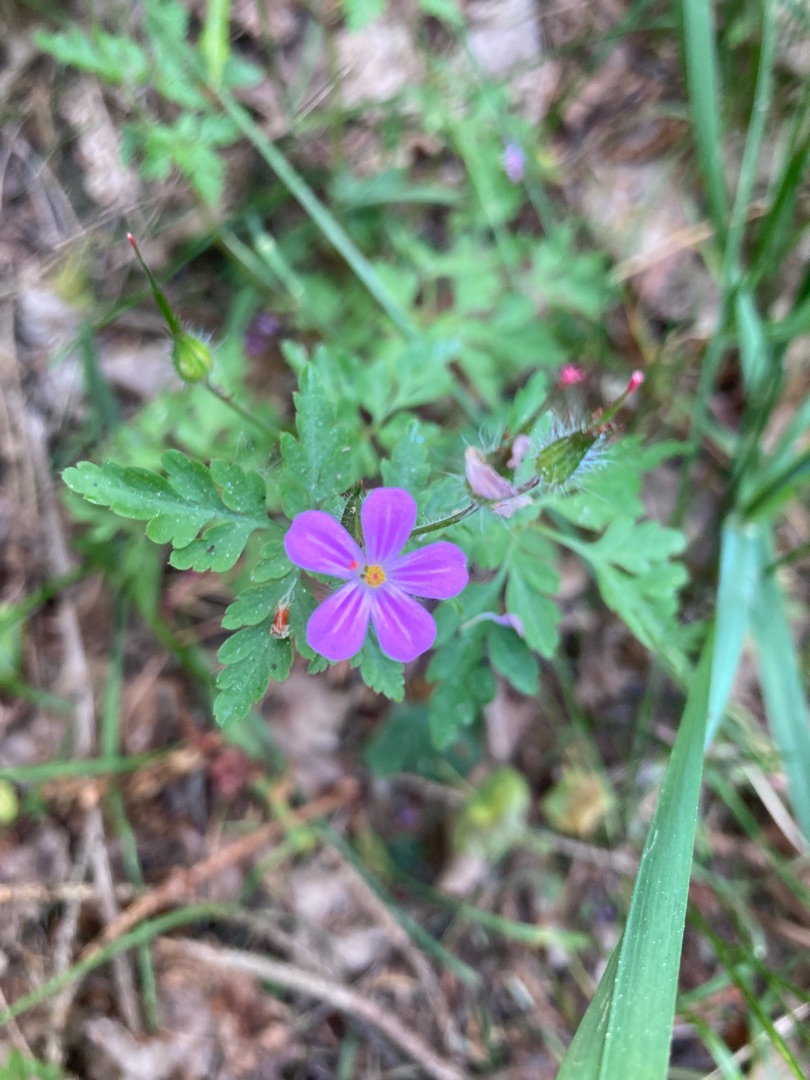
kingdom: Plantae
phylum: Tracheophyta
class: Magnoliopsida
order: Geraniales
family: Geraniaceae
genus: Geranium
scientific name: Geranium robertianum
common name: Stinkende storkenæb
